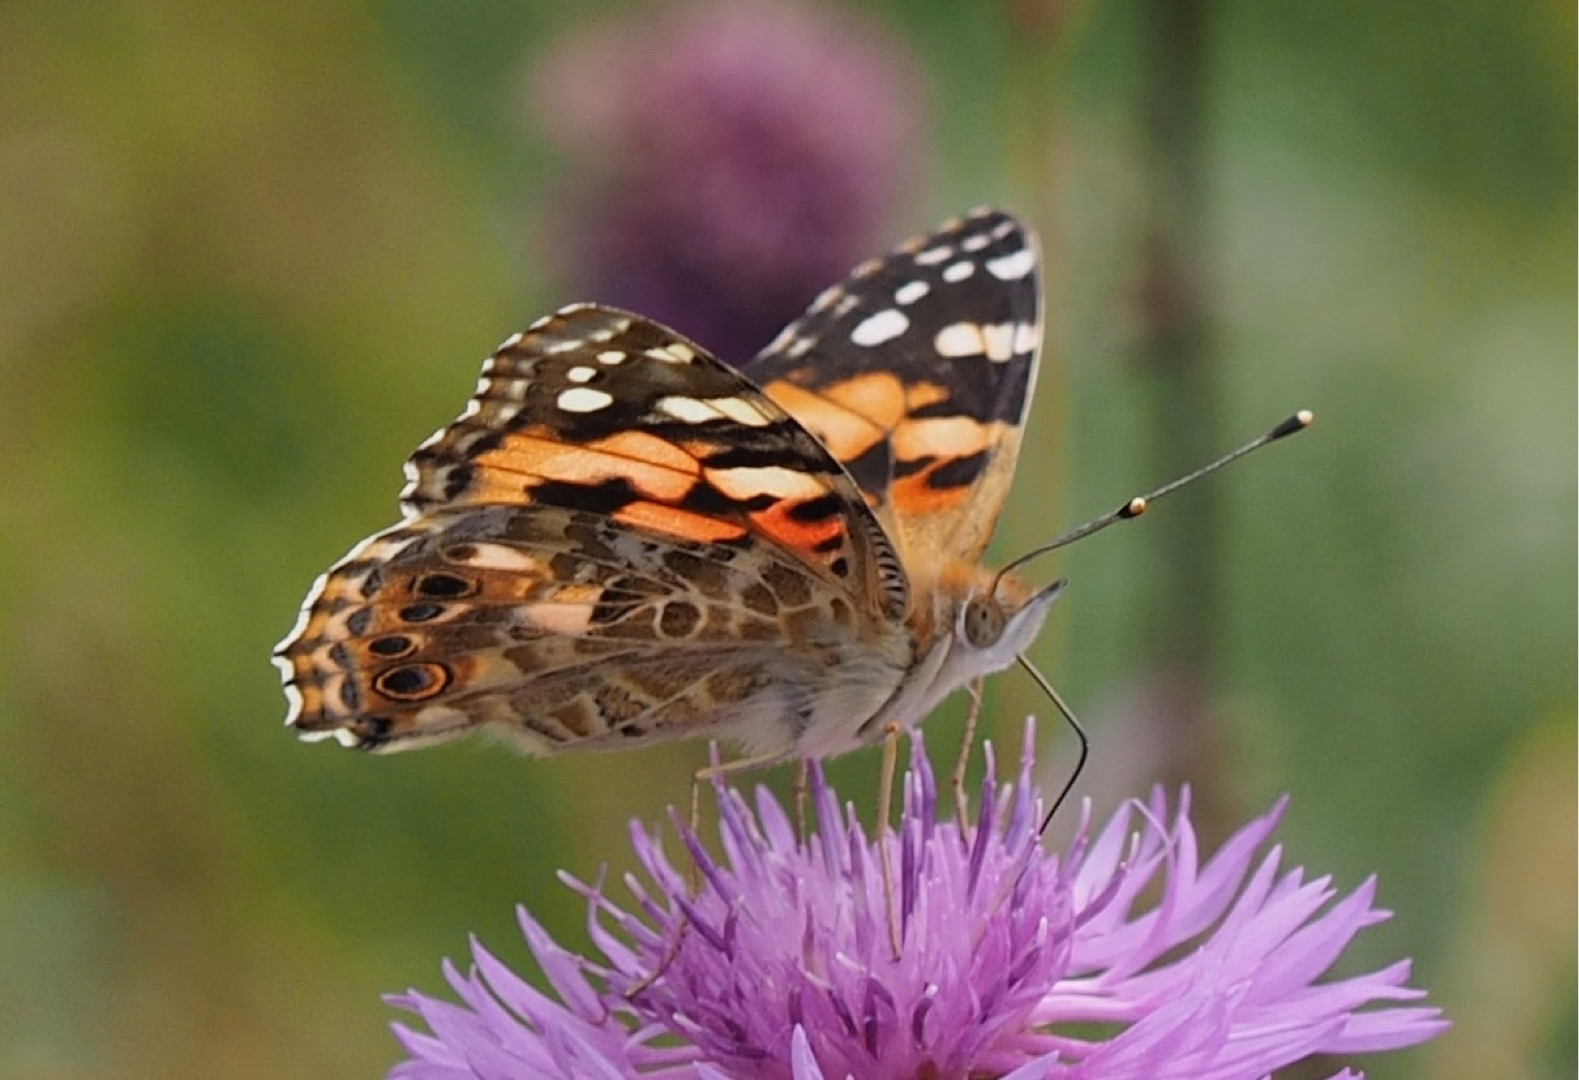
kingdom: Animalia
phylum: Arthropoda
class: Insecta
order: Lepidoptera
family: Nymphalidae
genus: Vanessa
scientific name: Vanessa cardui
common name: Tidselsommerfugl
